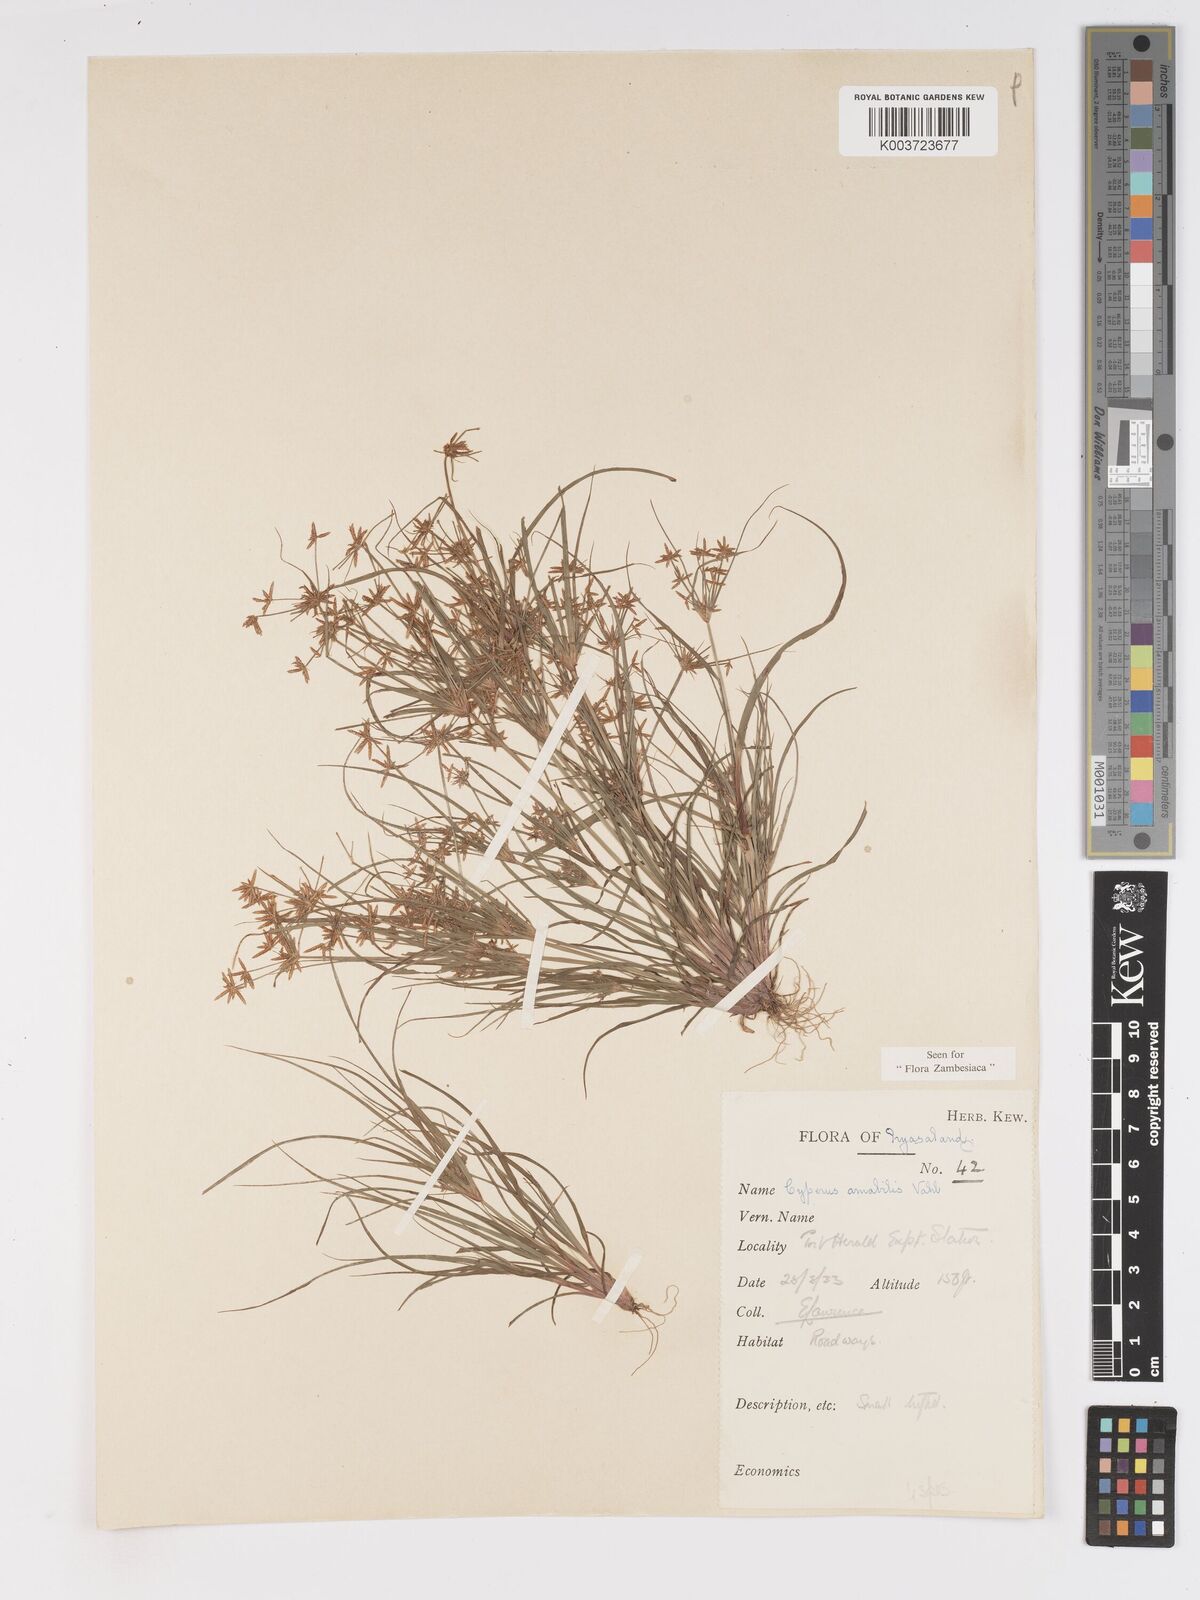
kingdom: Plantae
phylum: Tracheophyta
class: Liliopsida
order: Poales
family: Cyperaceae
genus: Cyperus
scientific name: Cyperus amabilis
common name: Foothill flat sedge
